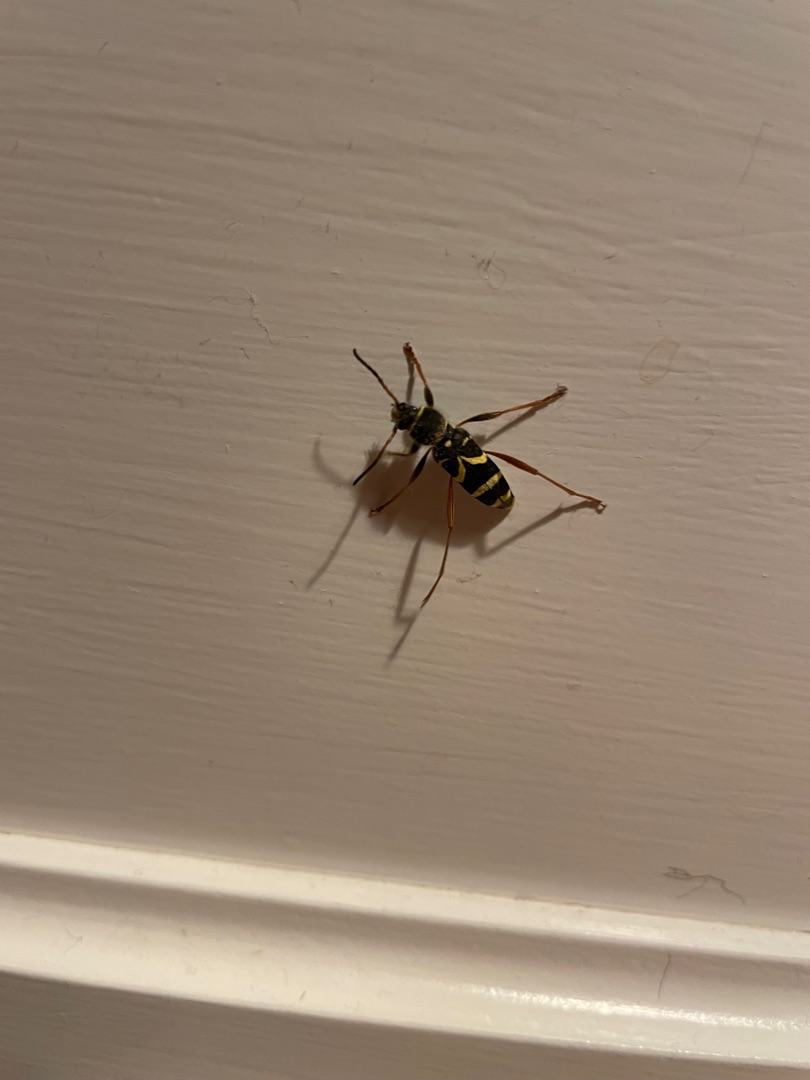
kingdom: Animalia
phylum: Arthropoda
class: Insecta
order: Coleoptera
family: Cerambycidae
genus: Clytus
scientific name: Clytus arietis
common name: Lille hvepsebuk
